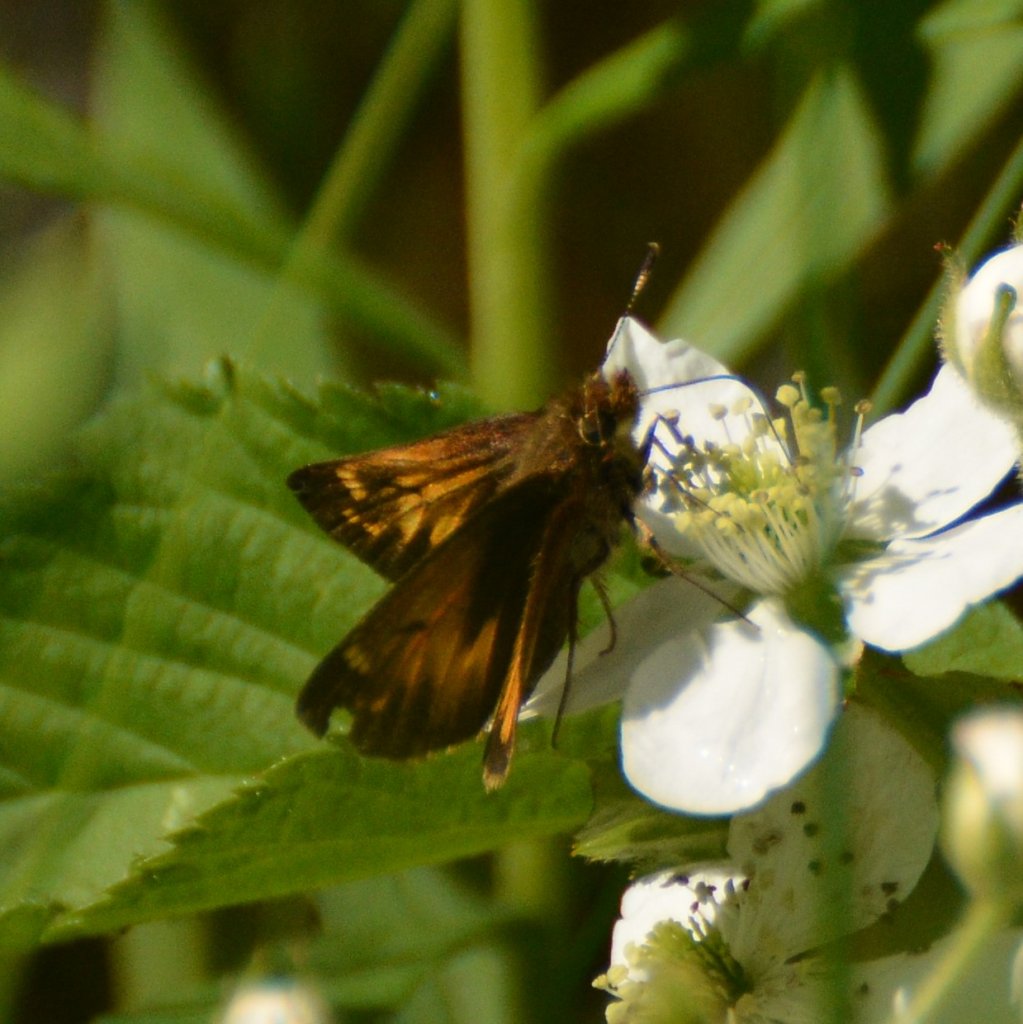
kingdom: Animalia
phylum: Arthropoda
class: Insecta
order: Lepidoptera
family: Hesperiidae
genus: Lon
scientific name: Lon hobomok
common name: Hobomok Skipper
